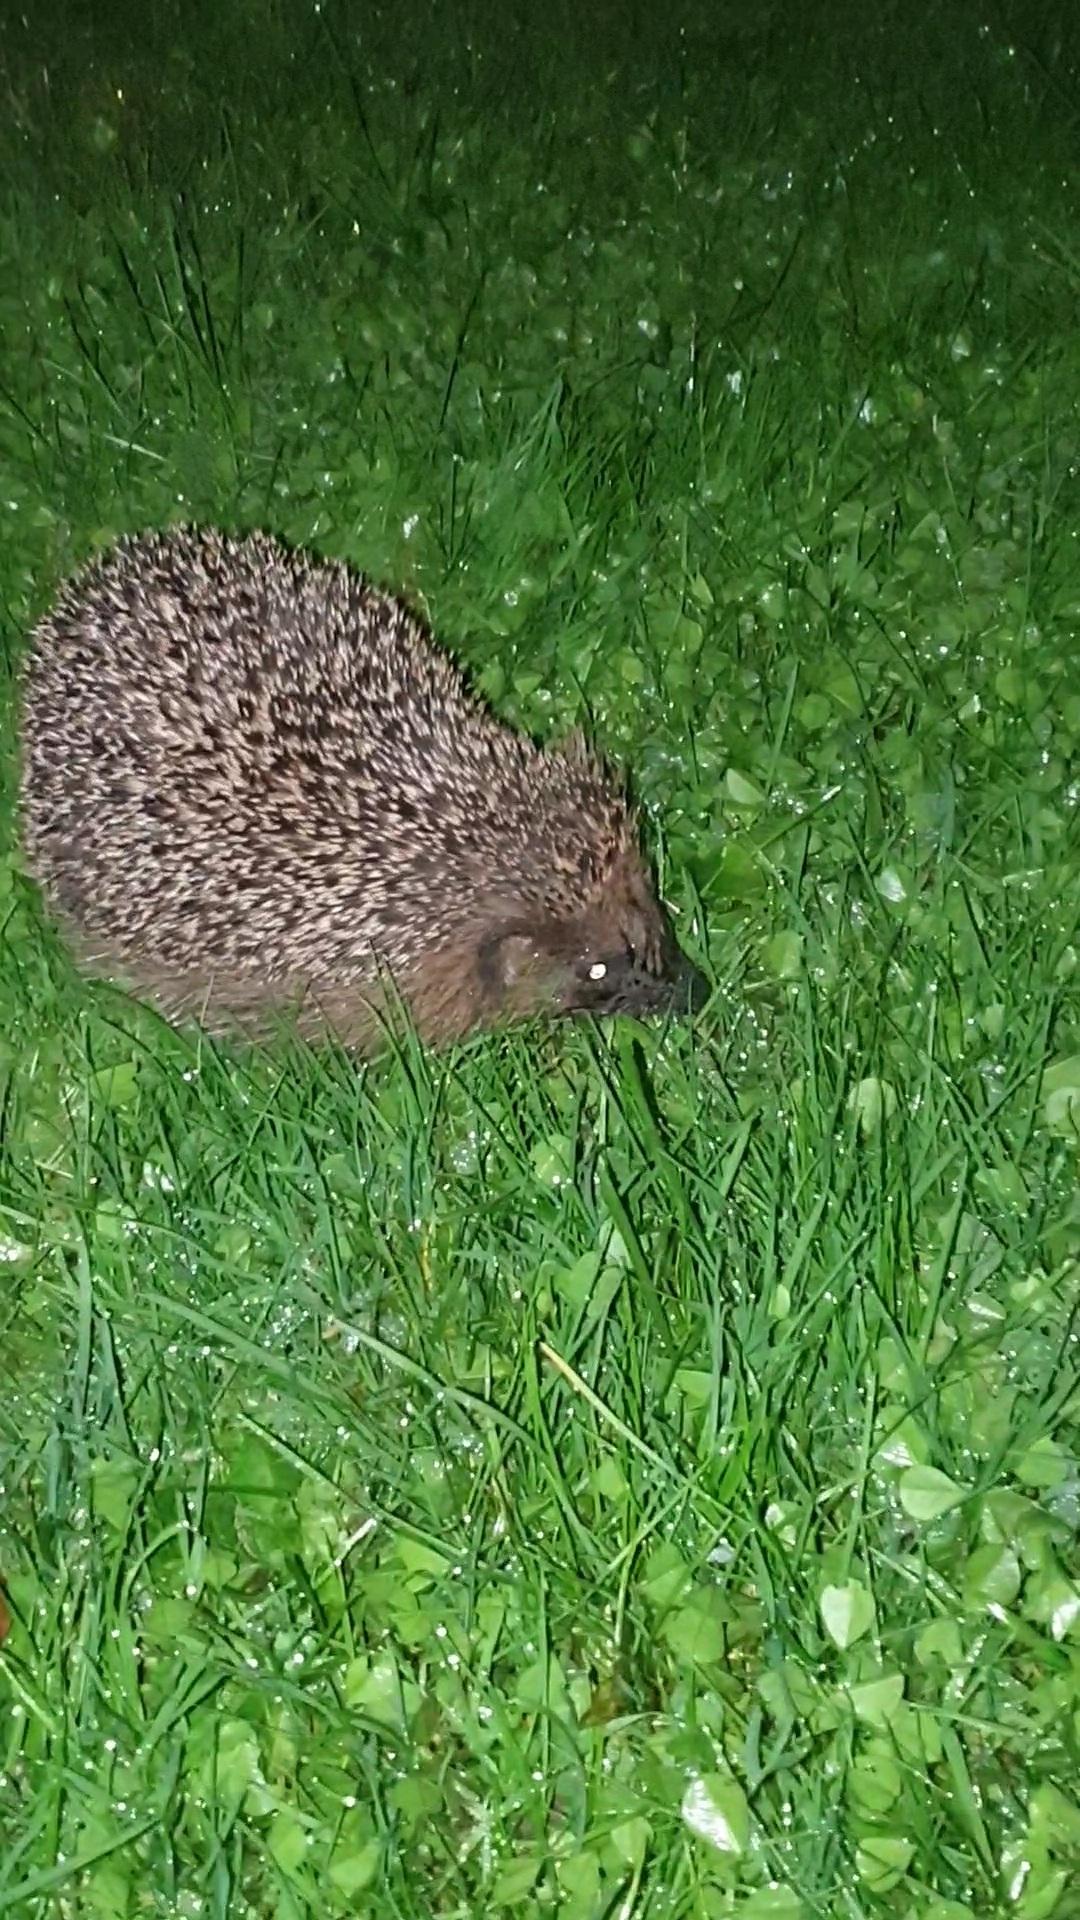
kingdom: Animalia
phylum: Chordata
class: Mammalia
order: Erinaceomorpha
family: Erinaceidae
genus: Erinaceus
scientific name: Erinaceus europaeus
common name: Pindsvin
